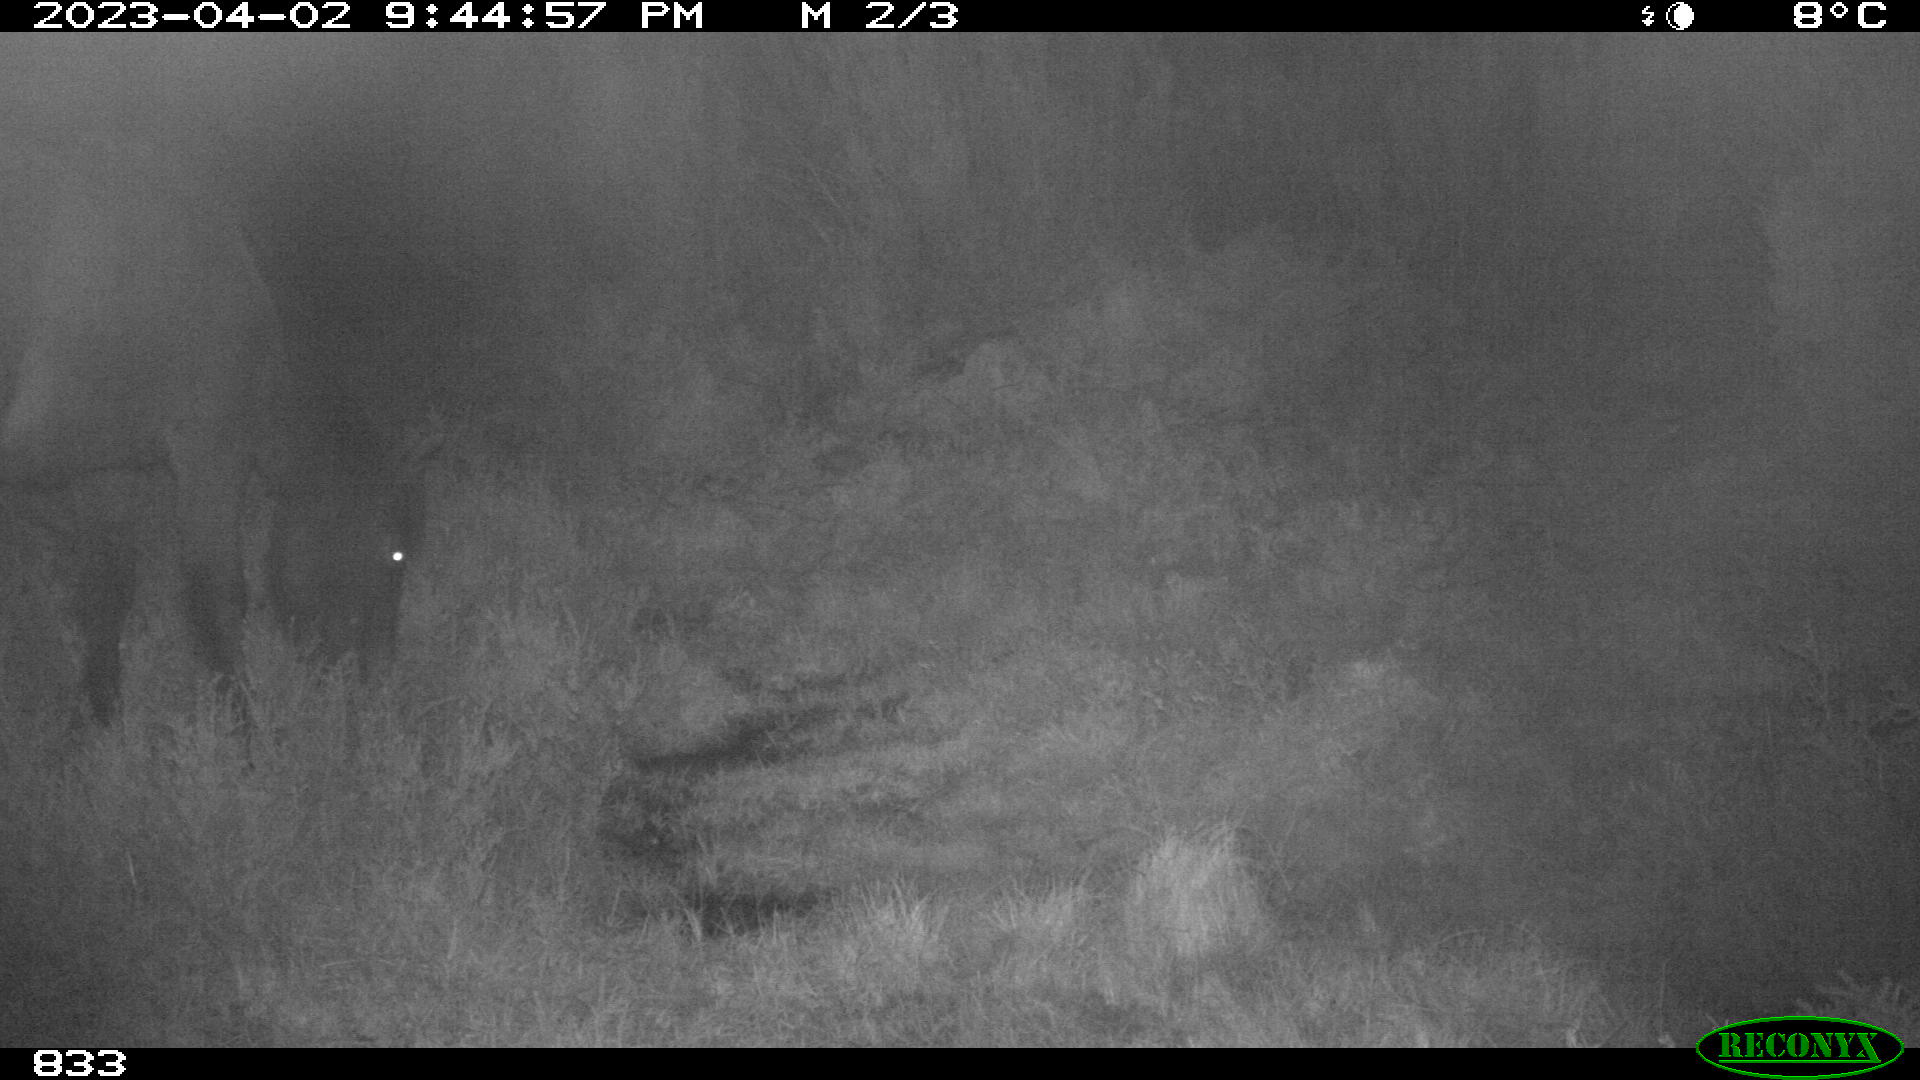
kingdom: Animalia
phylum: Chordata
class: Mammalia
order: Perissodactyla
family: Equidae
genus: Equus
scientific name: Equus caballus
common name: Horse
